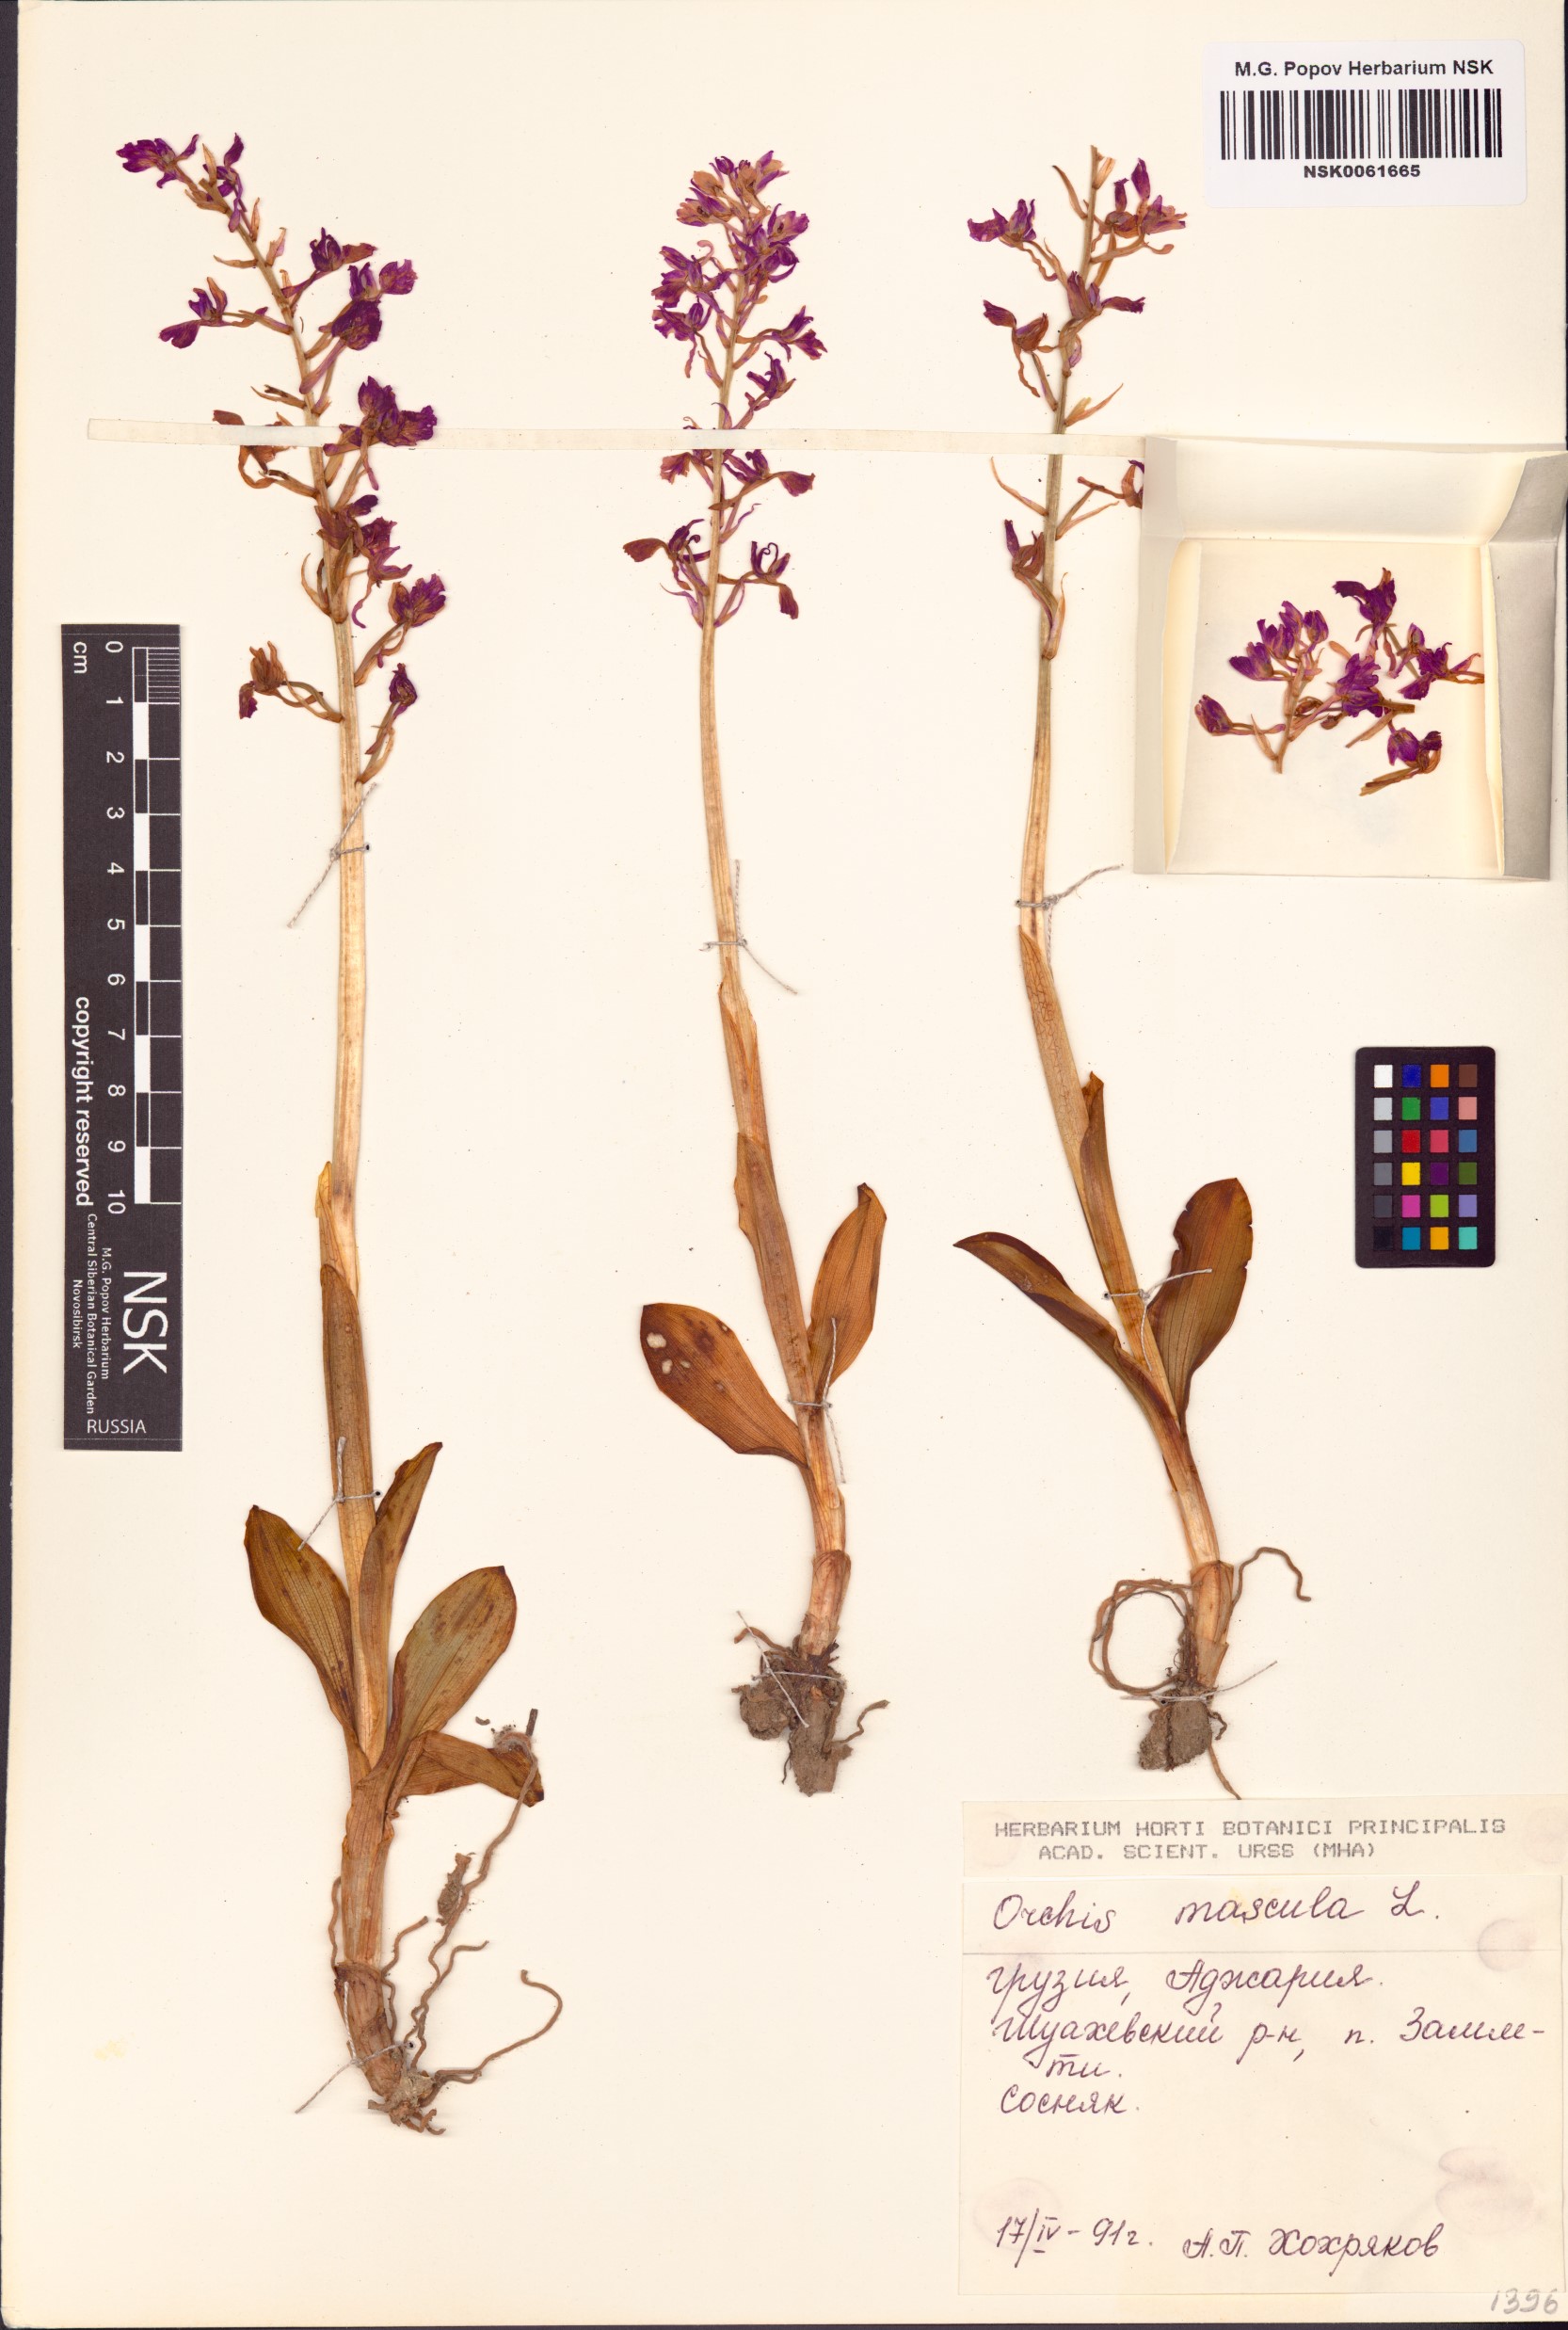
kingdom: Plantae
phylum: Tracheophyta
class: Liliopsida
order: Asparagales
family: Orchidaceae
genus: Orchis
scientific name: Orchis mascula
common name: Early-purple orchid
